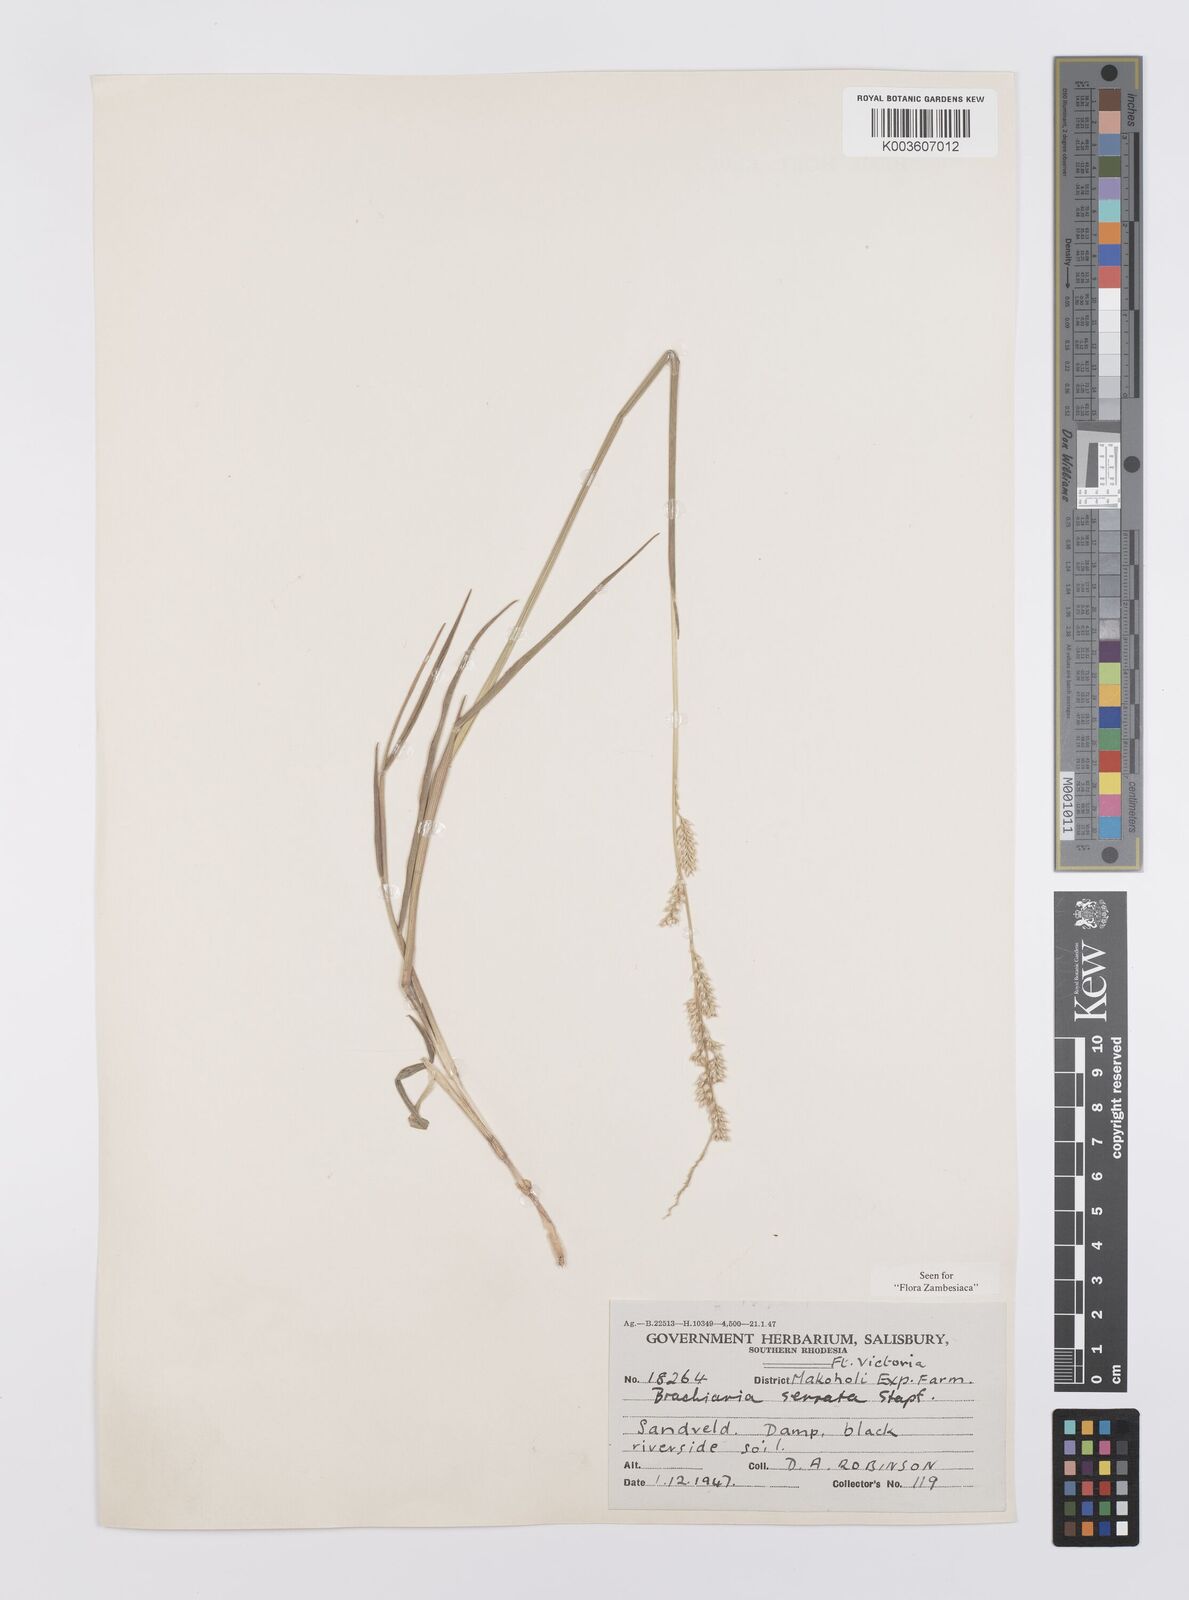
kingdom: Plantae
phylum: Tracheophyta
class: Liliopsida
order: Poales
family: Poaceae
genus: Urochloa
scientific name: Urochloa serrata
